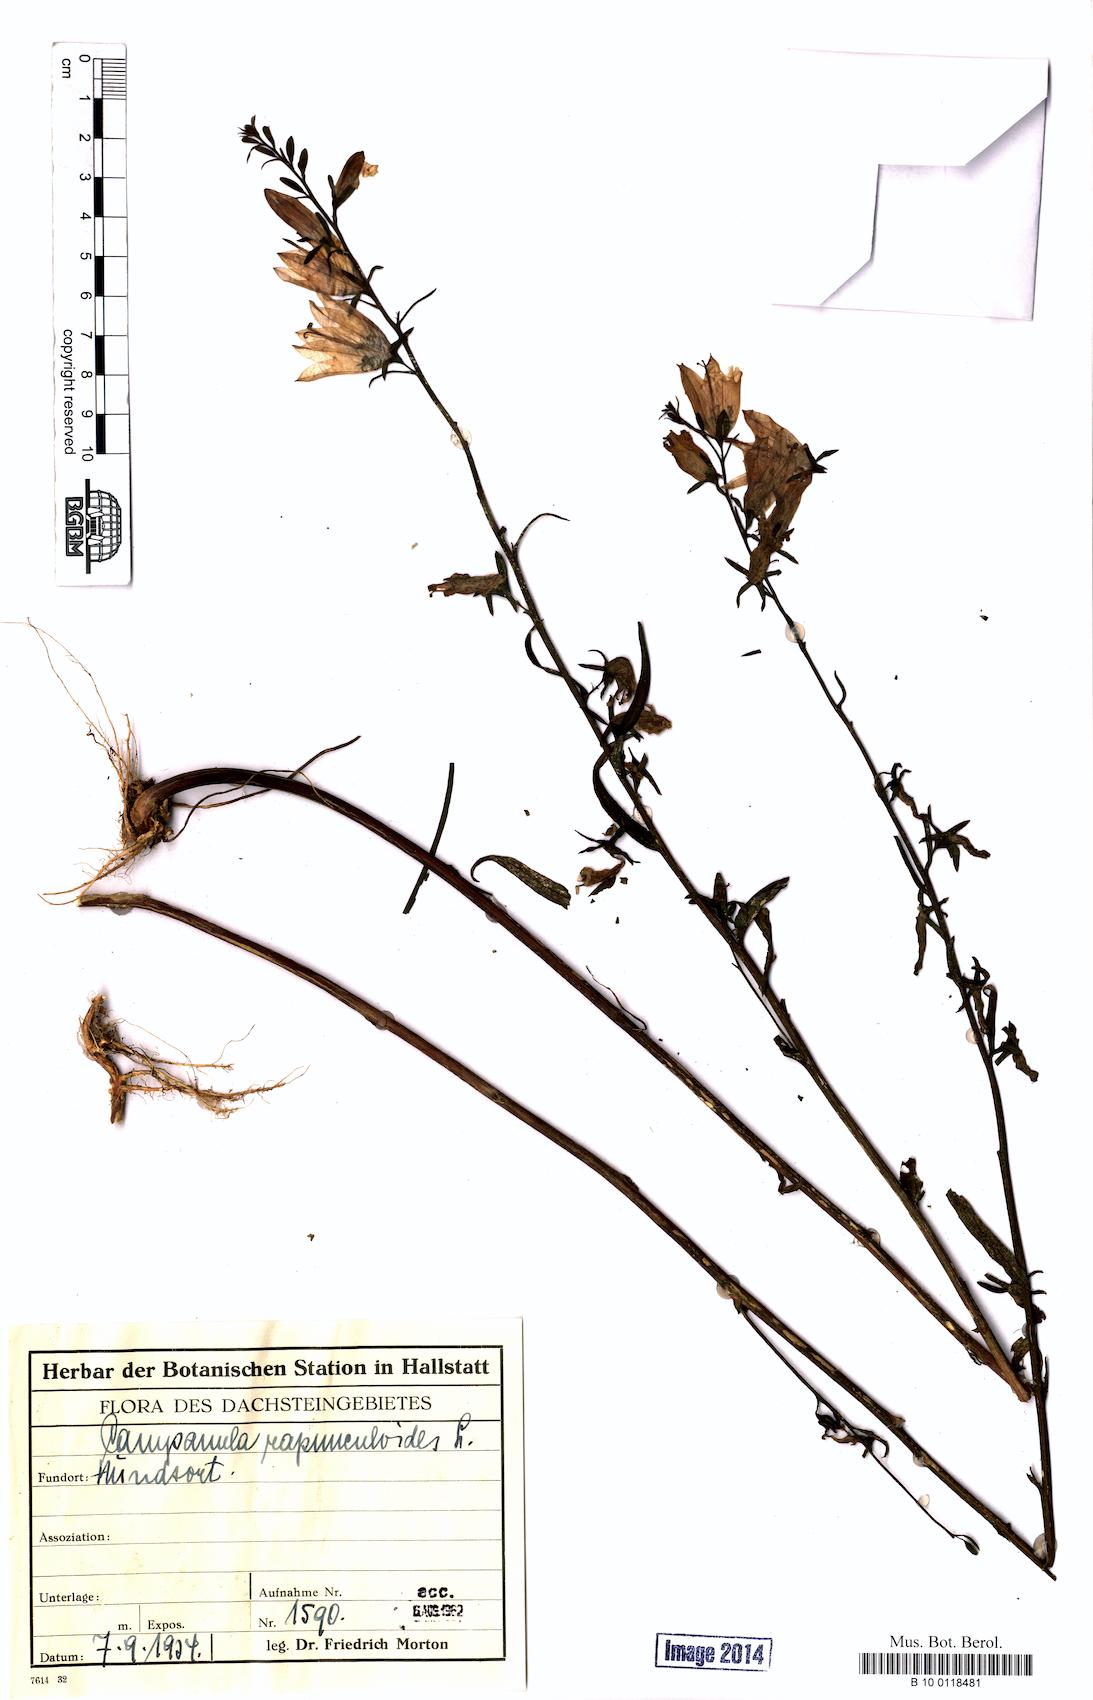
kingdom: Plantae
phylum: Tracheophyta
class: Magnoliopsida
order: Asterales
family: Campanulaceae
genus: Campanula
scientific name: Campanula rapunculoides
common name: Creeping bellflower
